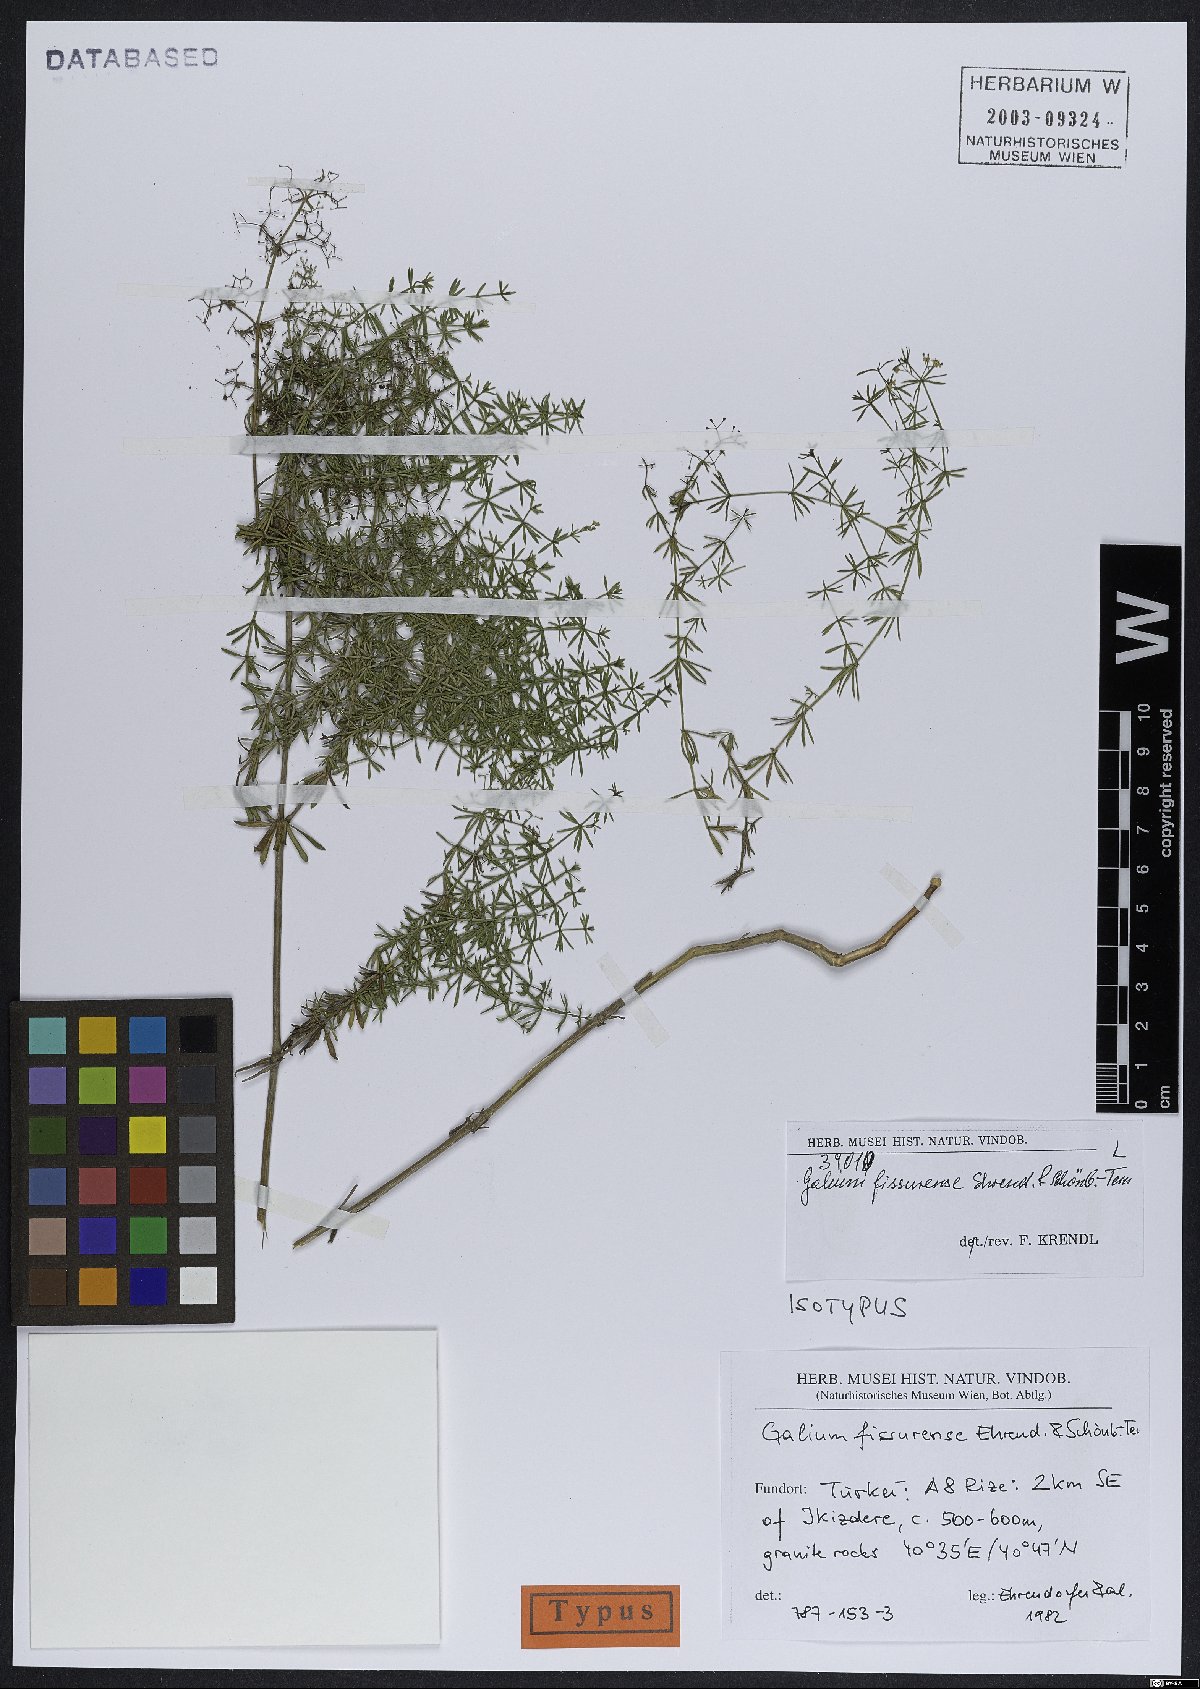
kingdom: Plantae
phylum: Tracheophyta
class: Magnoliopsida
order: Gentianales
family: Rubiaceae
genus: Galium
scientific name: Galium fissurense
